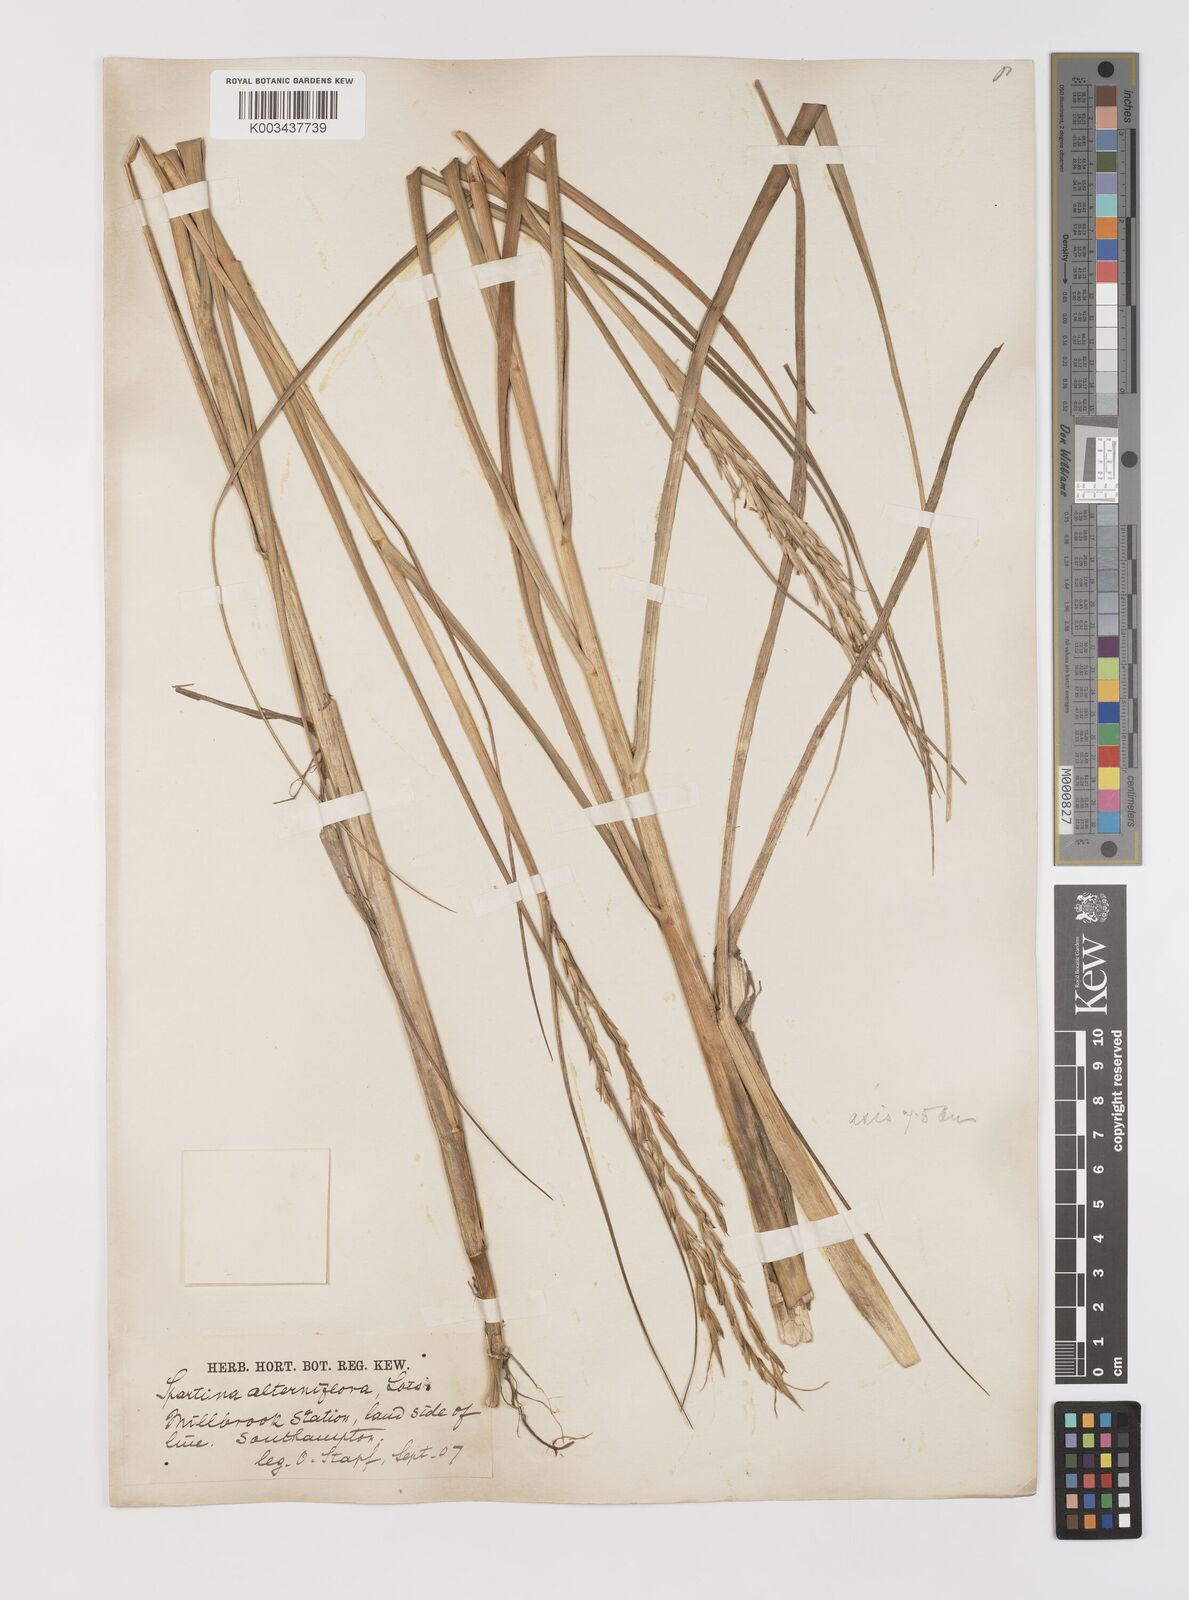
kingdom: Plantae
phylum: Tracheophyta
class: Liliopsida
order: Poales
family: Poaceae
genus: Sporobolus
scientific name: Sporobolus alterniflorus
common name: Atlantic cordgrass
